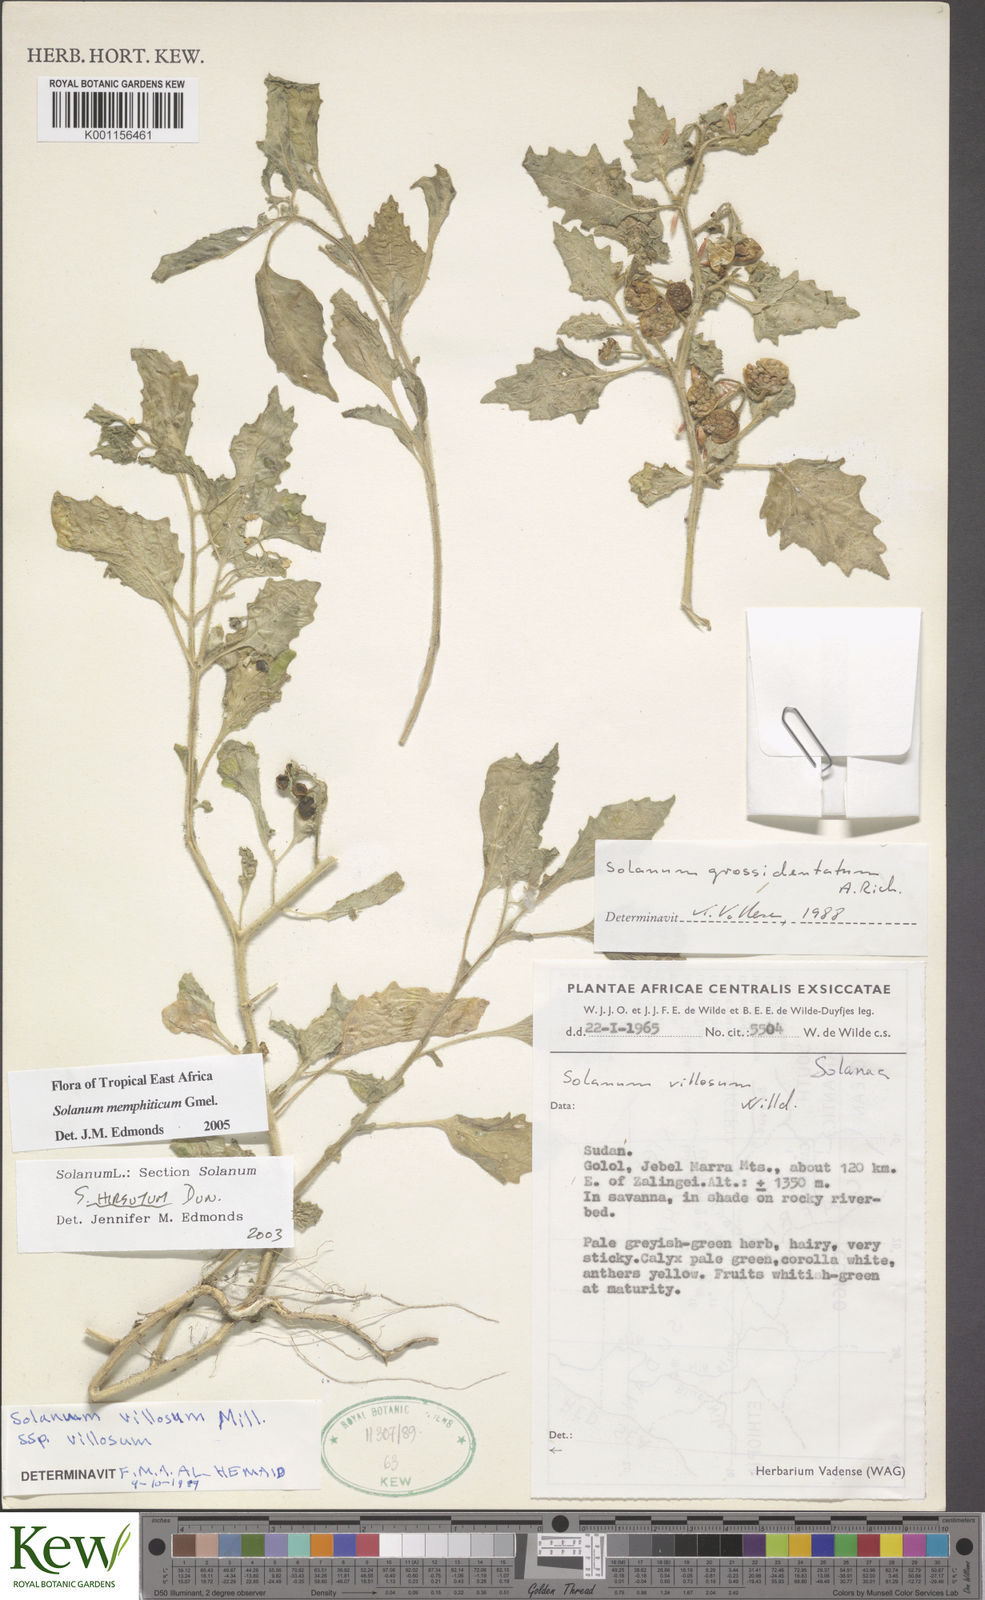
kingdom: Plantae
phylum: Tracheophyta
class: Magnoliopsida
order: Solanales
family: Solanaceae
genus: Solanum
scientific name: Solanum memphiticum
